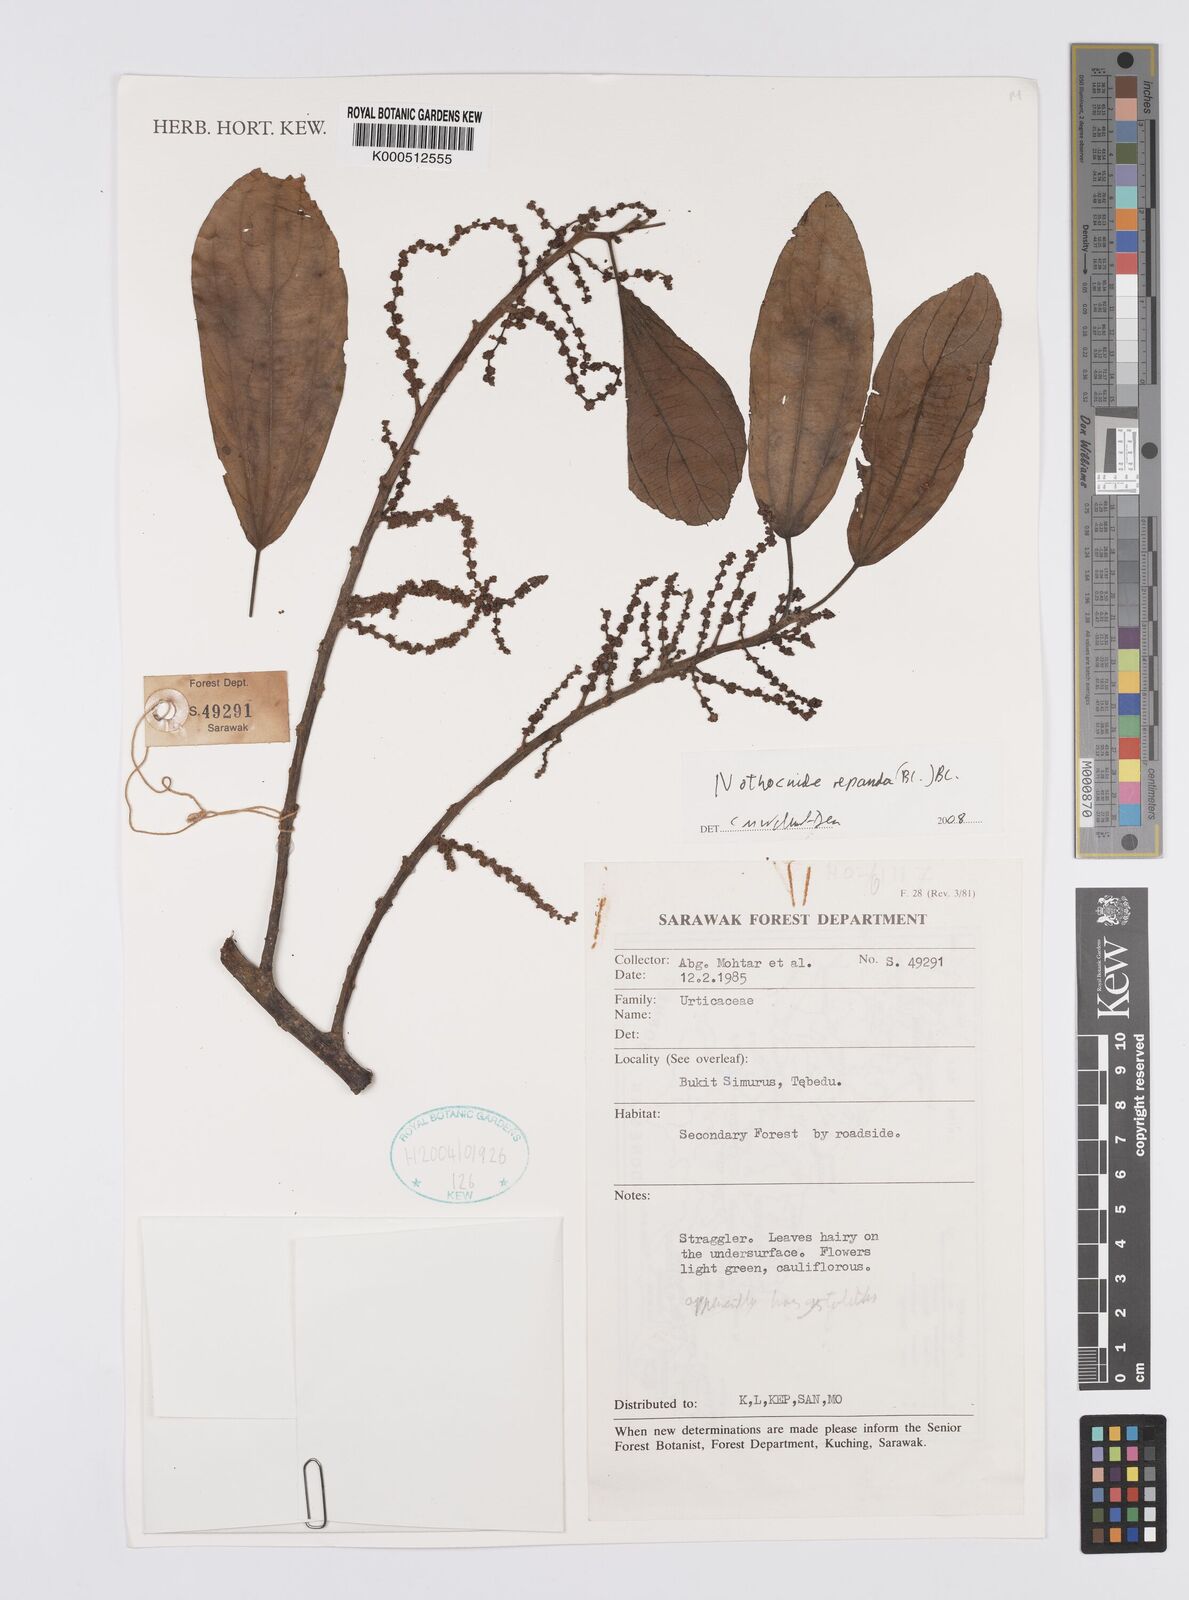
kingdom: Plantae
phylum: Tracheophyta
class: Magnoliopsida
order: Rosales
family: Urticaceae
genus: Nothocnide
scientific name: Nothocnide repanda
